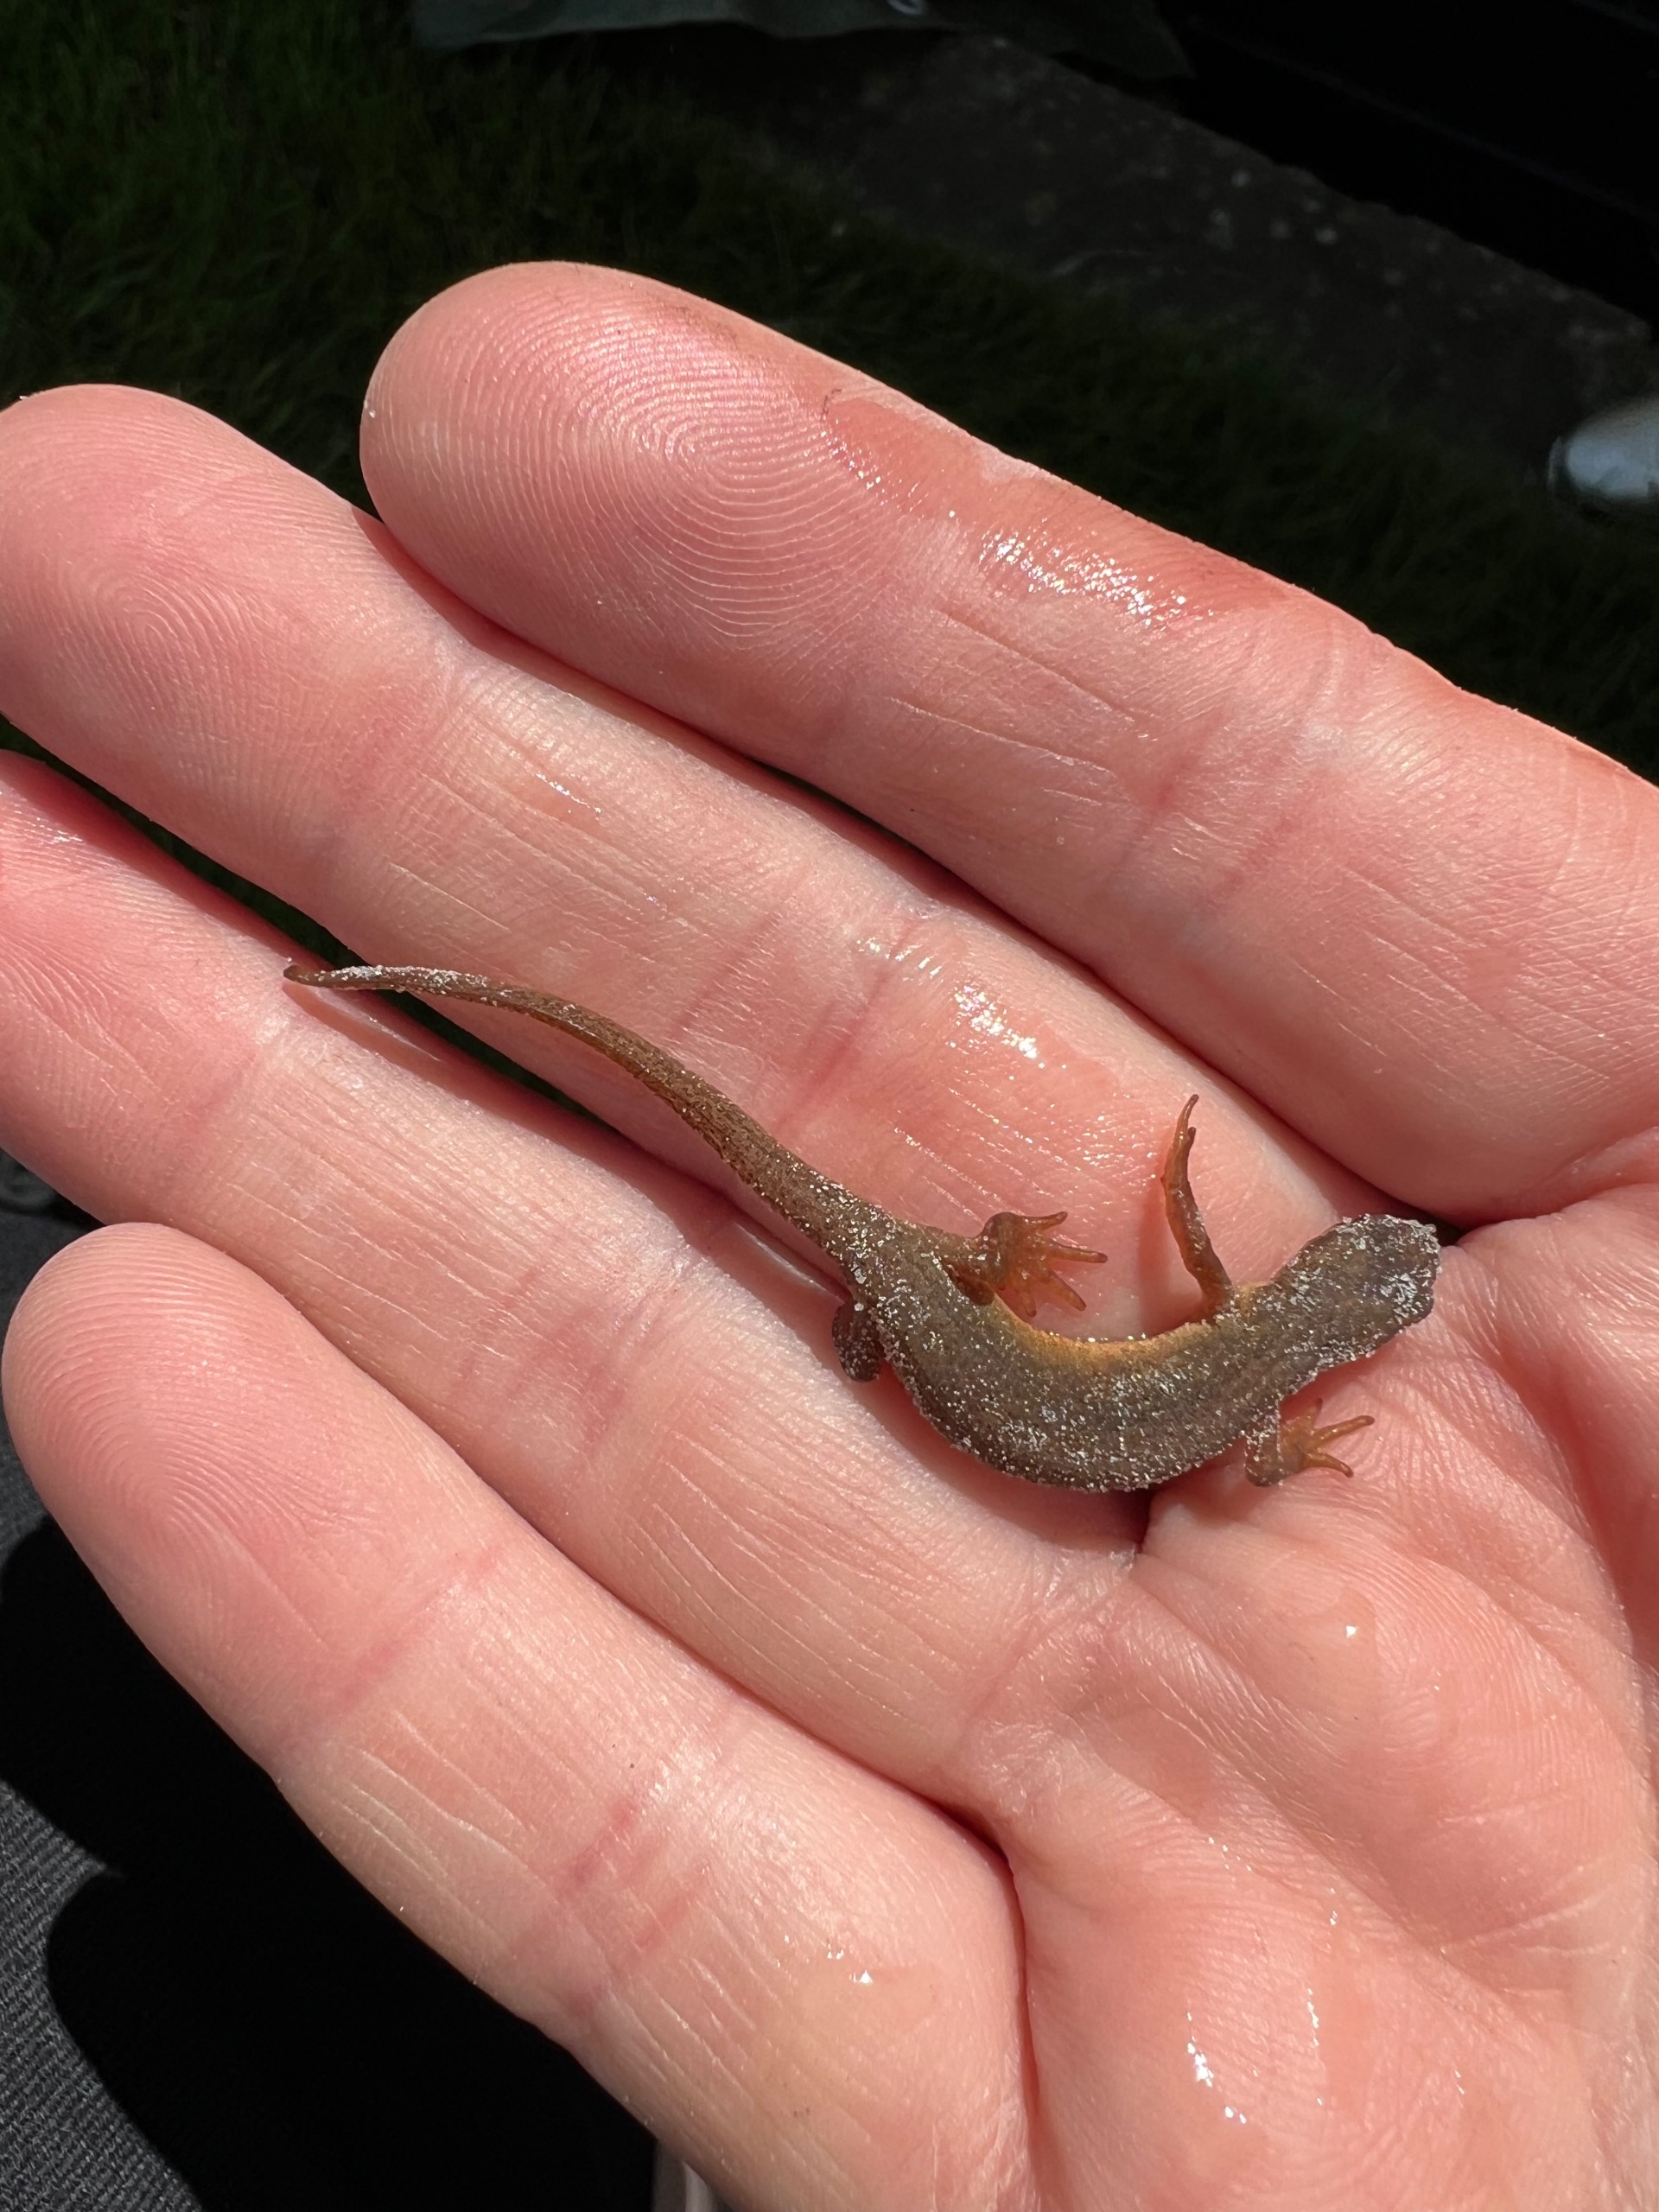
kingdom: Animalia
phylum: Chordata
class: Amphibia
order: Caudata
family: Salamandridae
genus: Lissotriton
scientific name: Lissotriton vulgaris
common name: Lille vandsalamander
